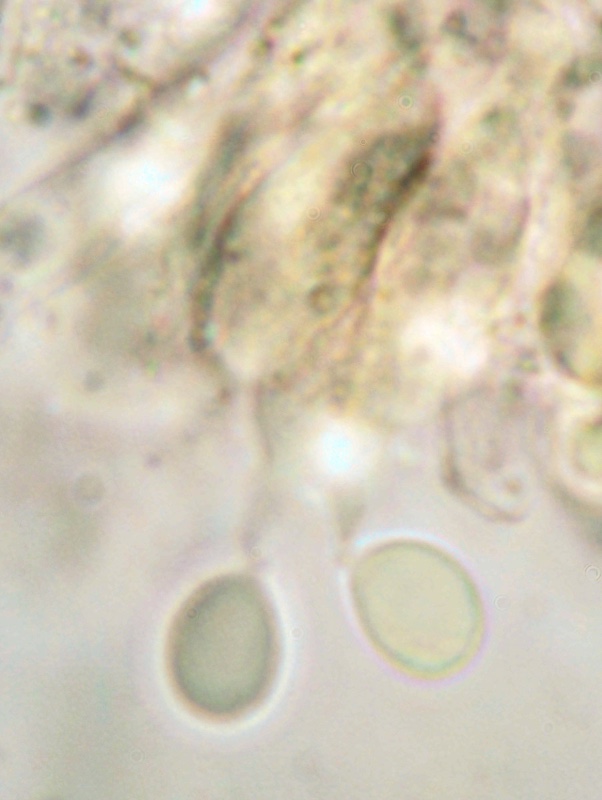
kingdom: Fungi
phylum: Basidiomycota
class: Agaricomycetes
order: Agaricales
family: Porotheleaceae
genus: Phloeomana
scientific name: Phloeomana hiemalis
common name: sen huesvamp
